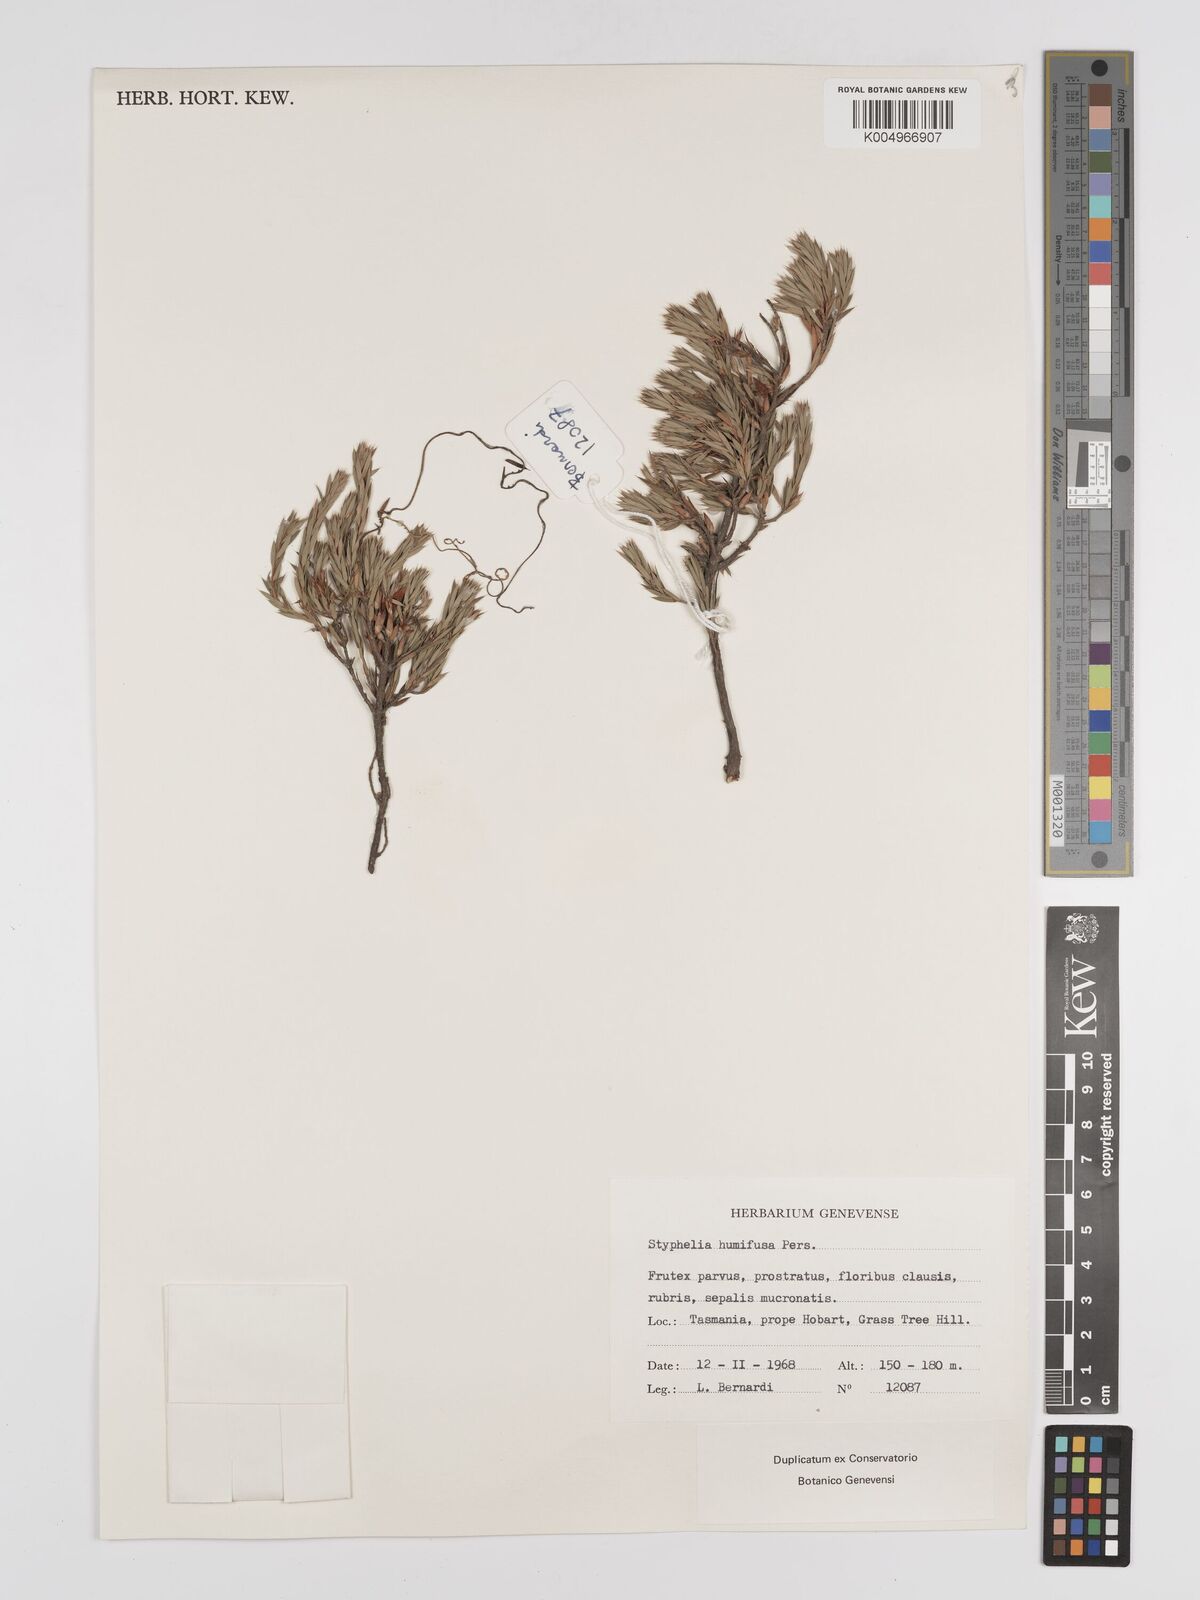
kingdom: Plantae
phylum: Tracheophyta
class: Magnoliopsida
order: Ericales
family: Ericaceae
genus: Styphelia
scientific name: Styphelia humifusa
